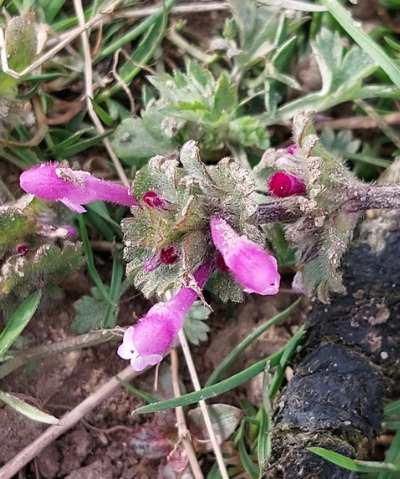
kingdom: Plantae
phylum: Tracheophyta
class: Magnoliopsida
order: Lamiales
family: Lamiaceae
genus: Lamium
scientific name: Lamium amplexicaule
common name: Liden tvetand
